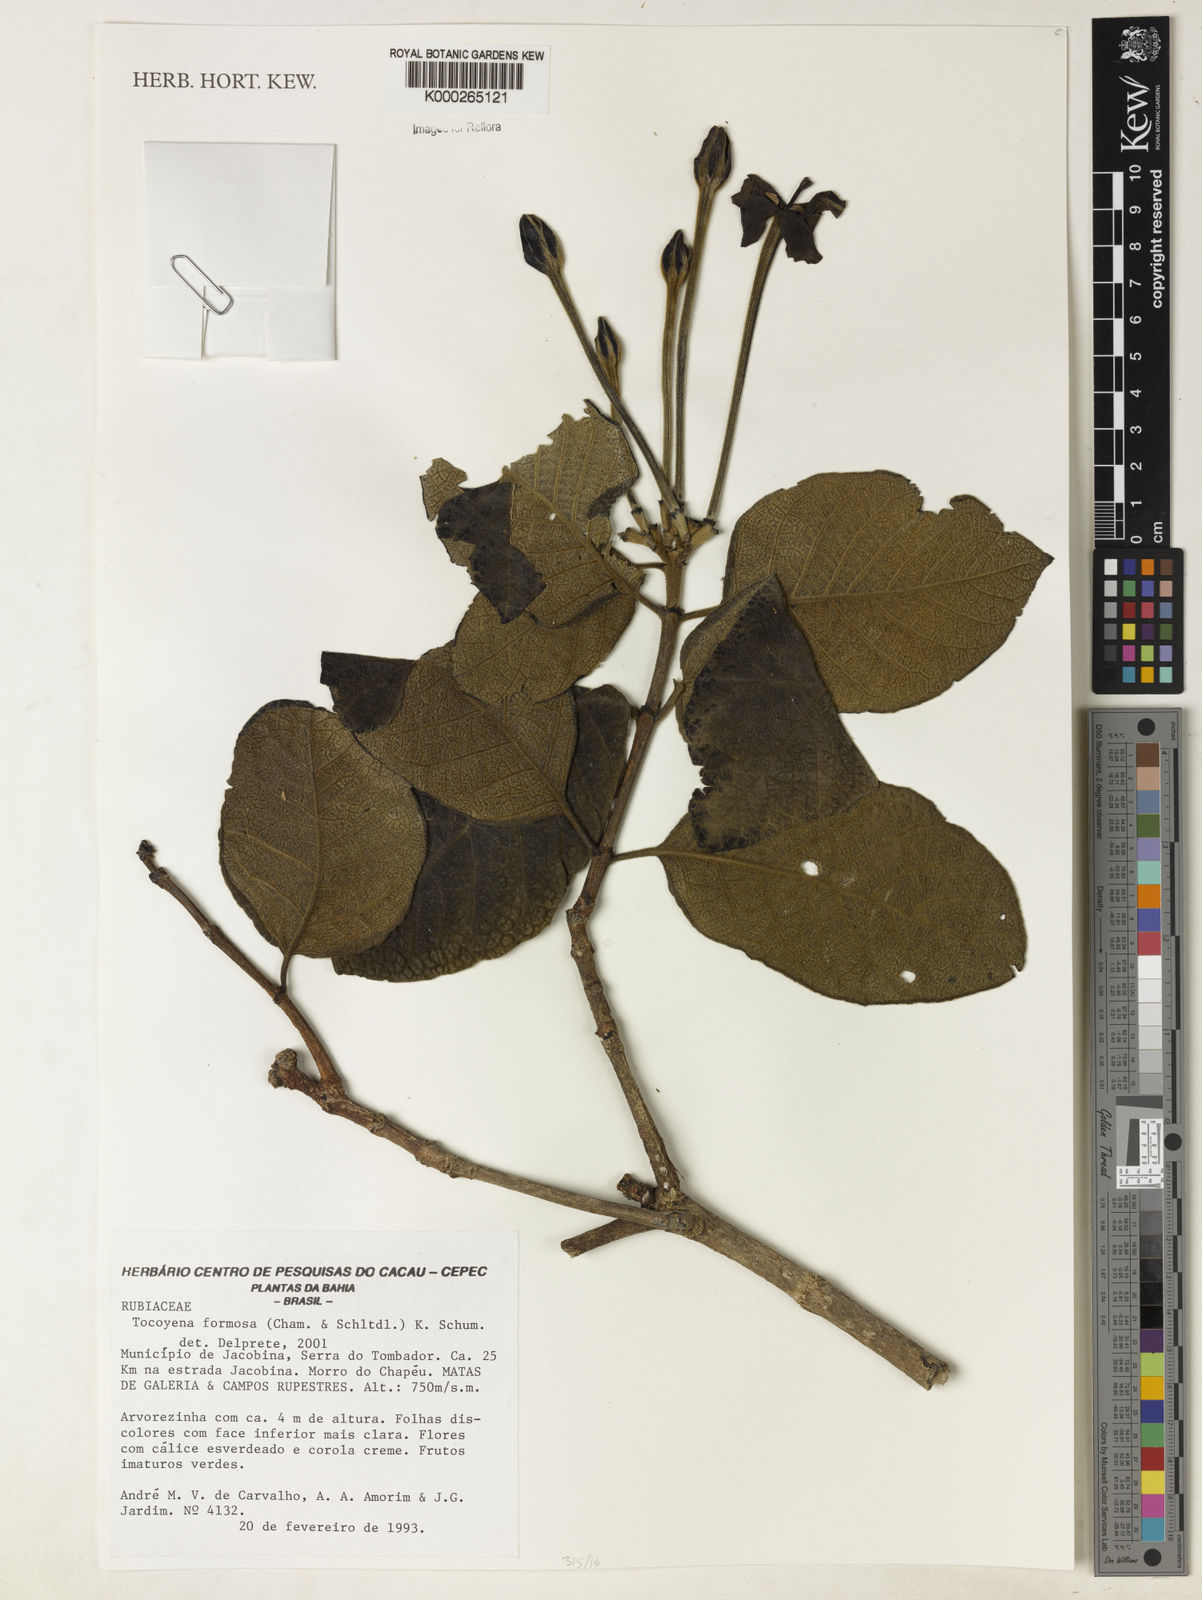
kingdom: Plantae
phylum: Tracheophyta
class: Magnoliopsida
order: Gentianales
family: Rubiaceae
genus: Tocoyena
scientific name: Tocoyena formosa
